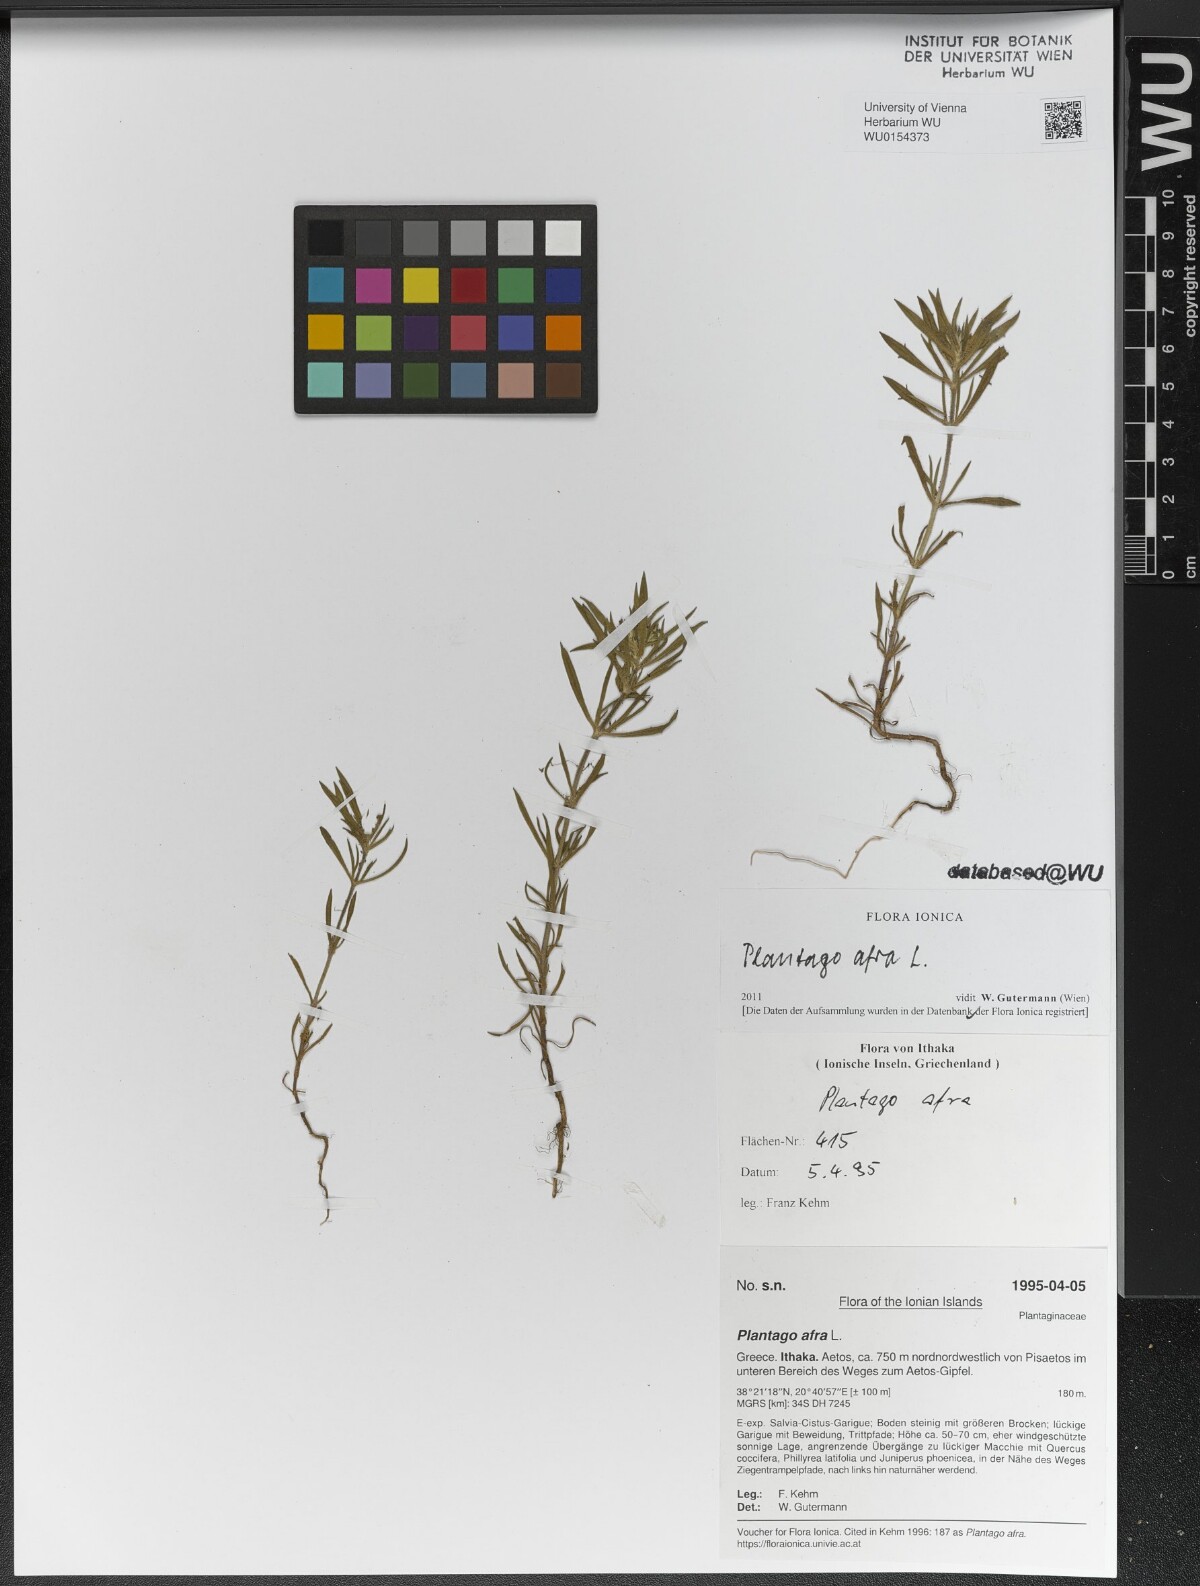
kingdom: Plantae
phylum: Tracheophyta
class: Magnoliopsida
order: Lamiales
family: Plantaginaceae
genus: Plantago
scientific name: Plantago afra
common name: Glandular plantain
